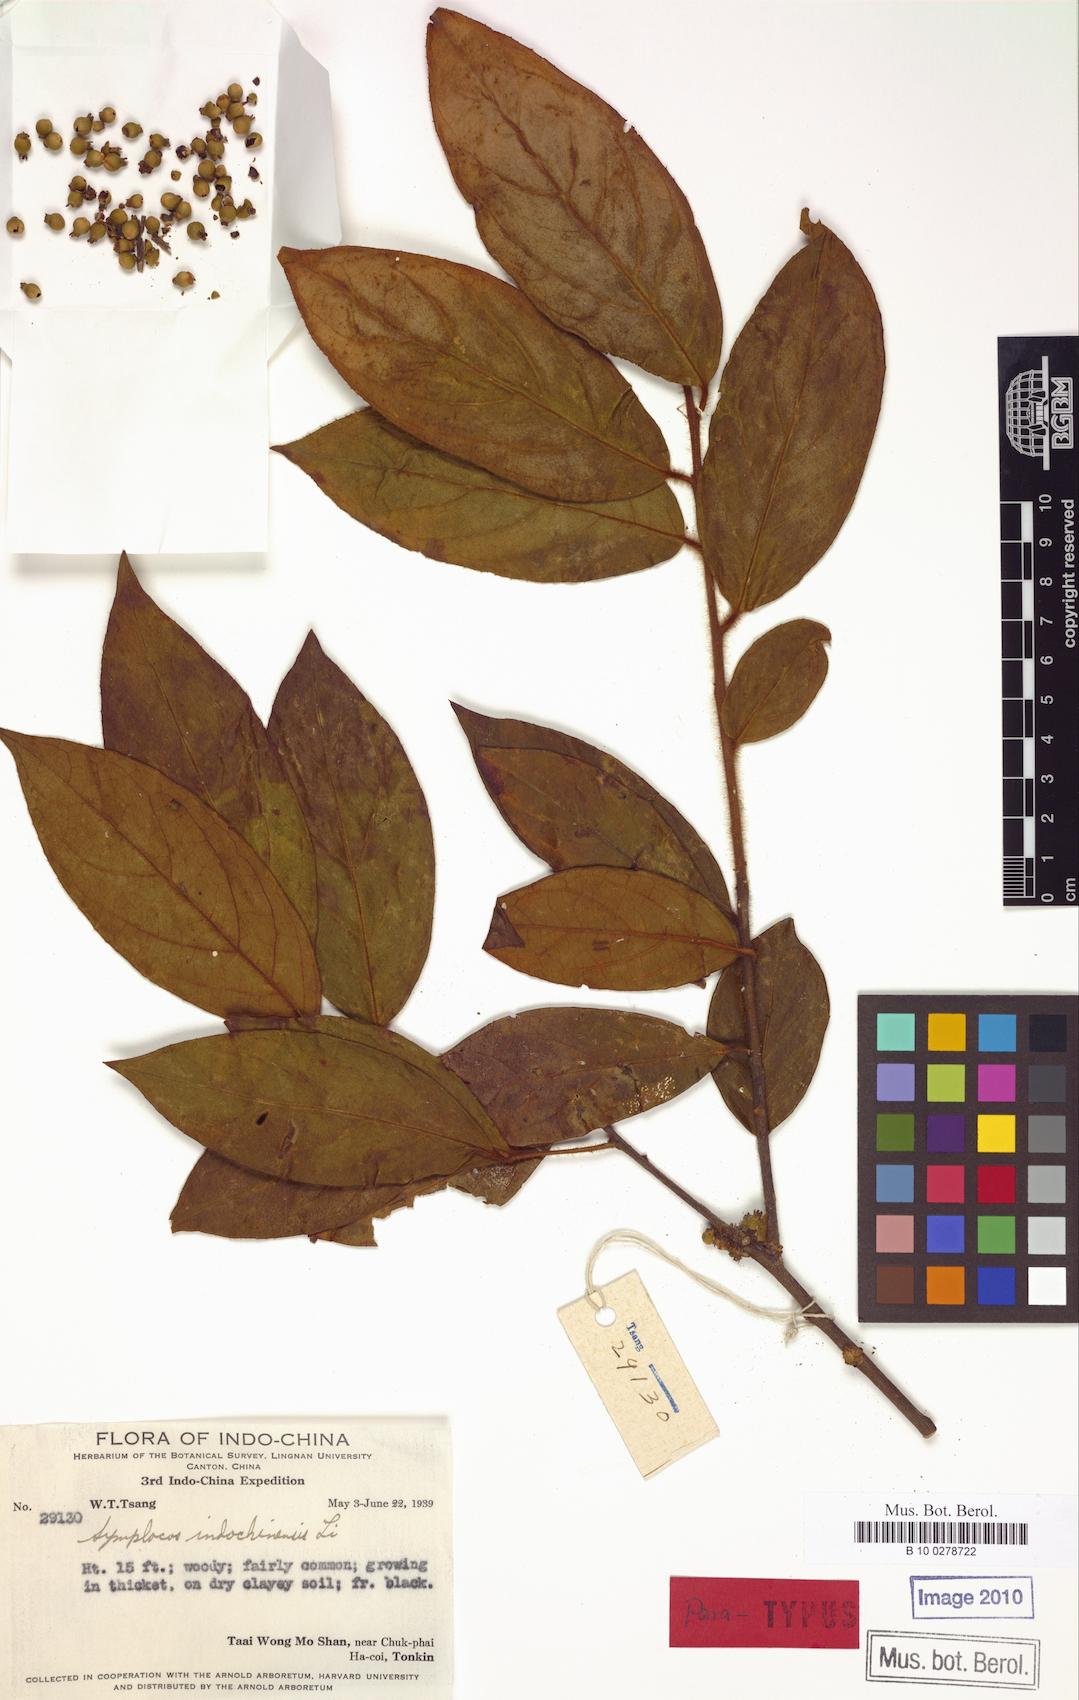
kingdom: Plantae
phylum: Tracheophyta
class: Magnoliopsida
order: Ericales
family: Symplocaceae
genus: Symplocos
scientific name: Symplocos dolichotricha
